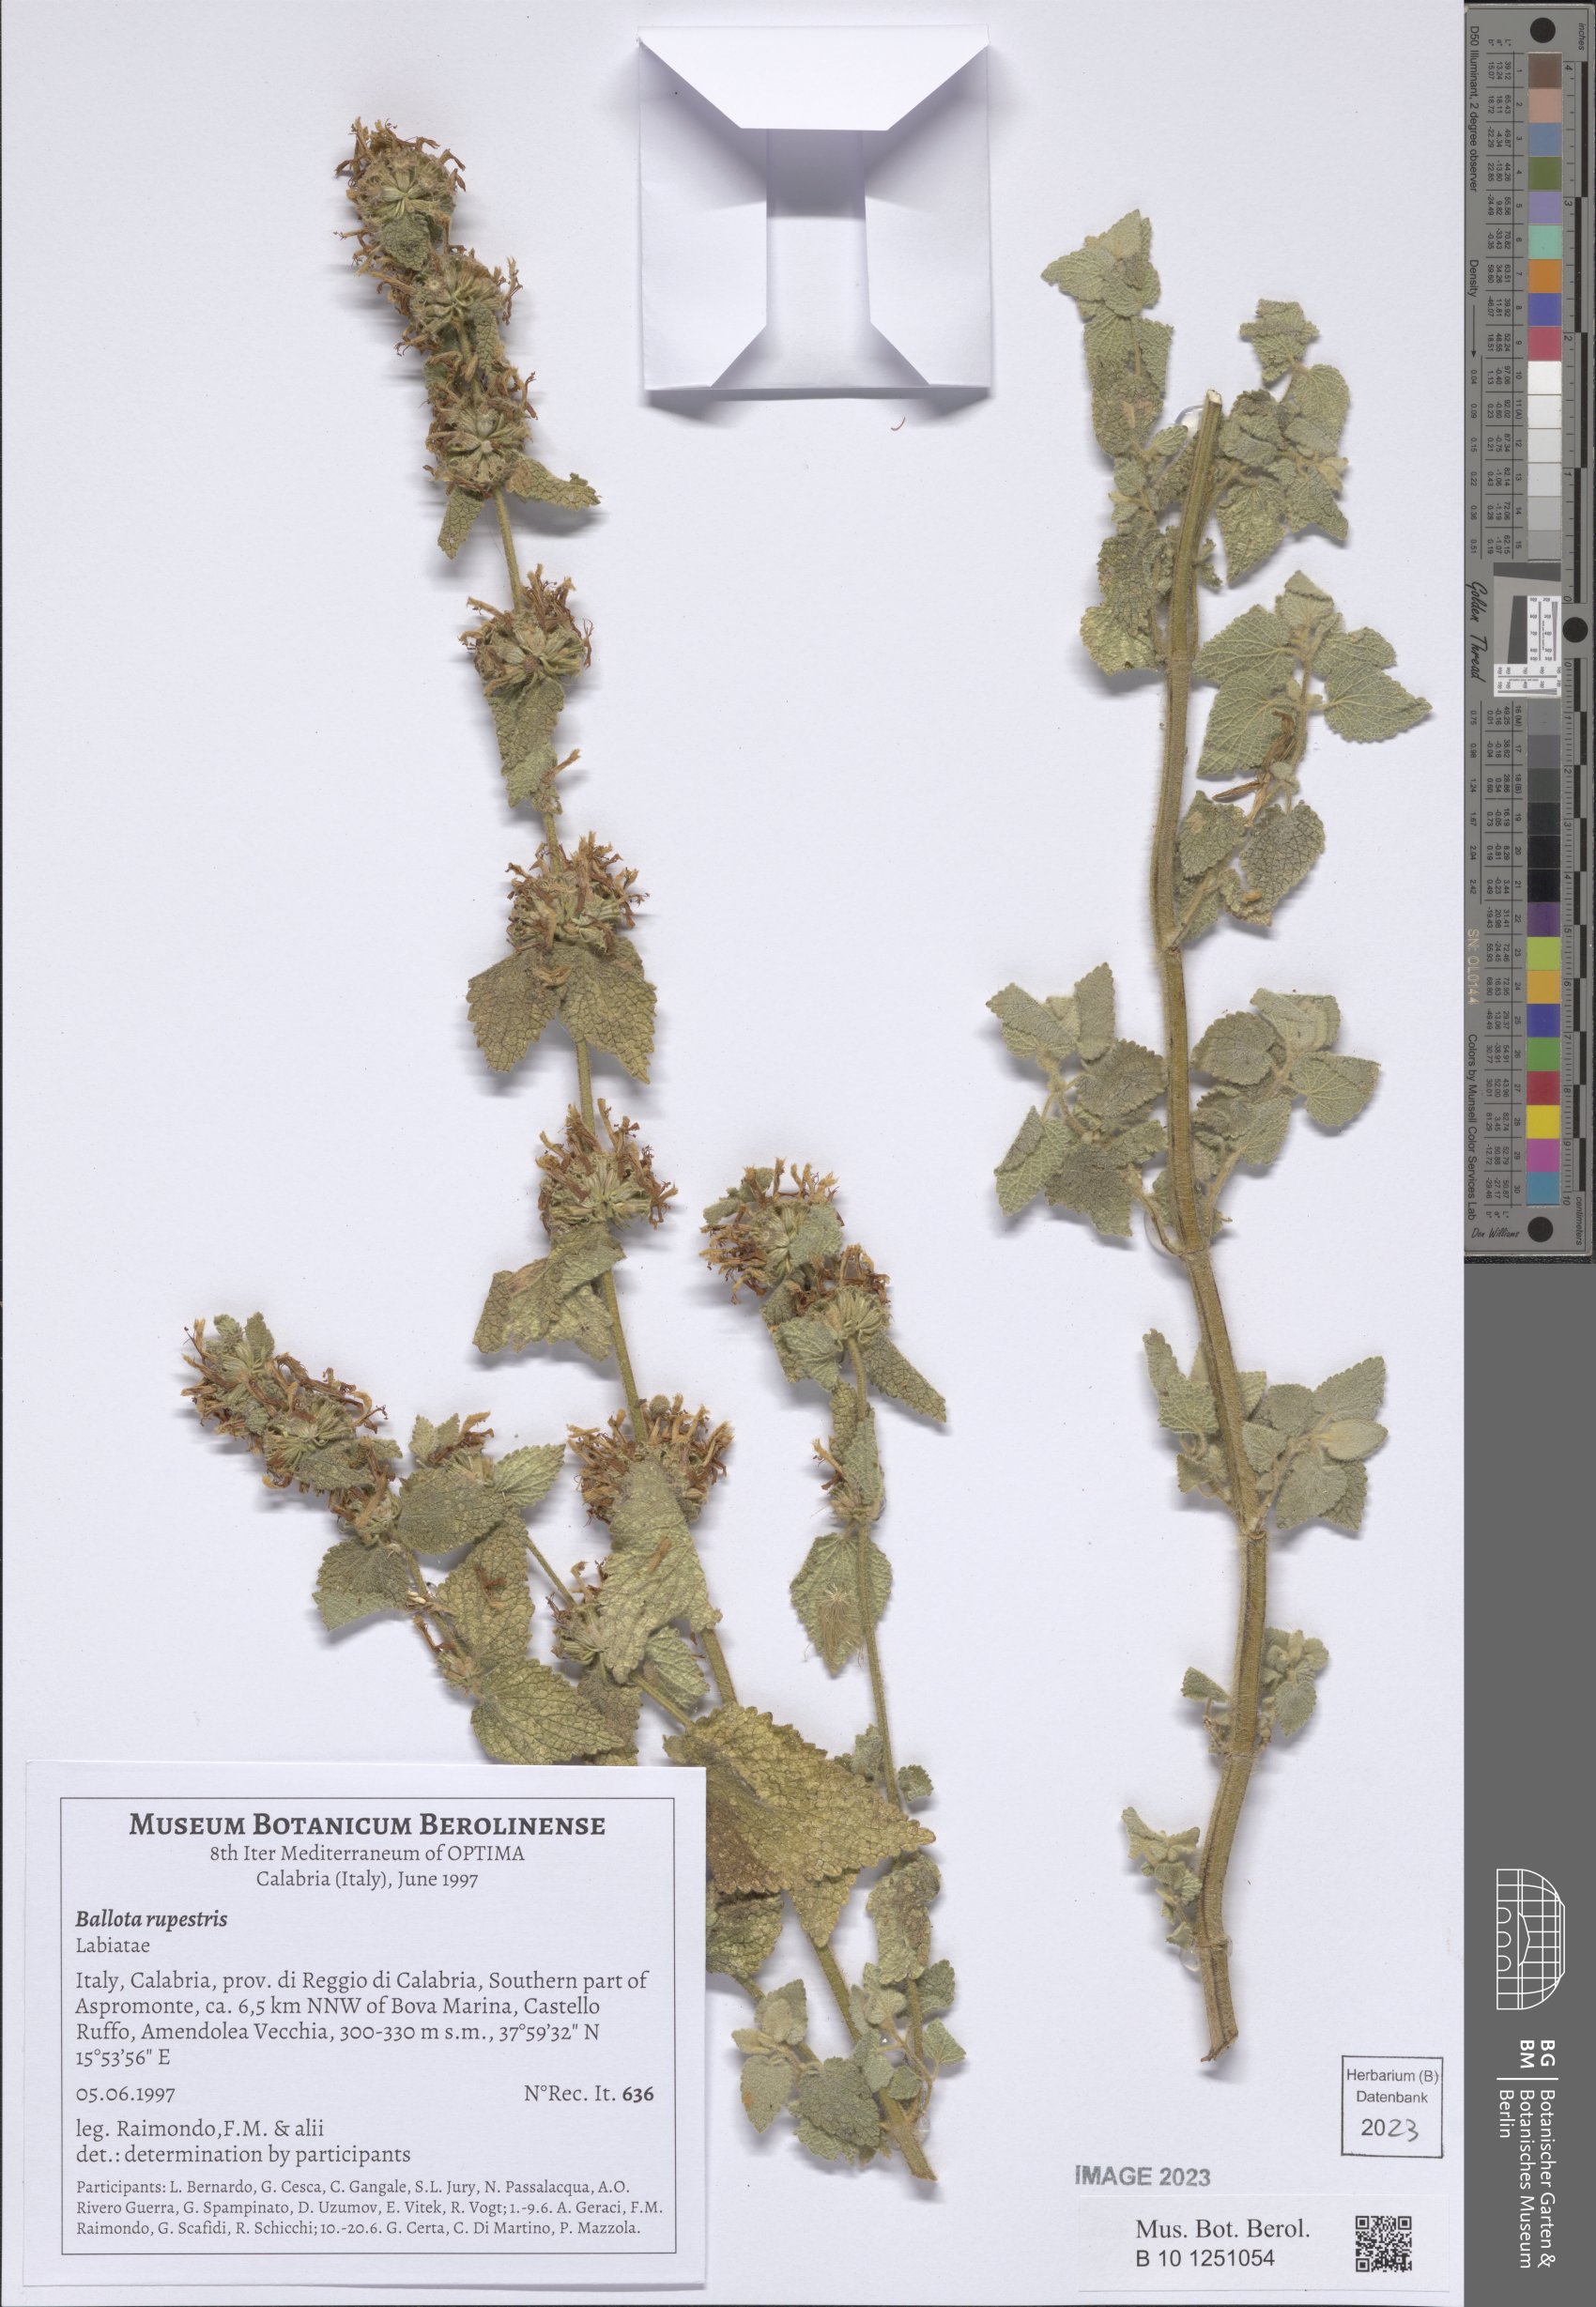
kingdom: Plantae
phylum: Tracheophyta
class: Magnoliopsida
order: Lamiales
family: Lamiaceae
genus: Pseudodictamnus
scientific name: Pseudodictamnus hispanicus
